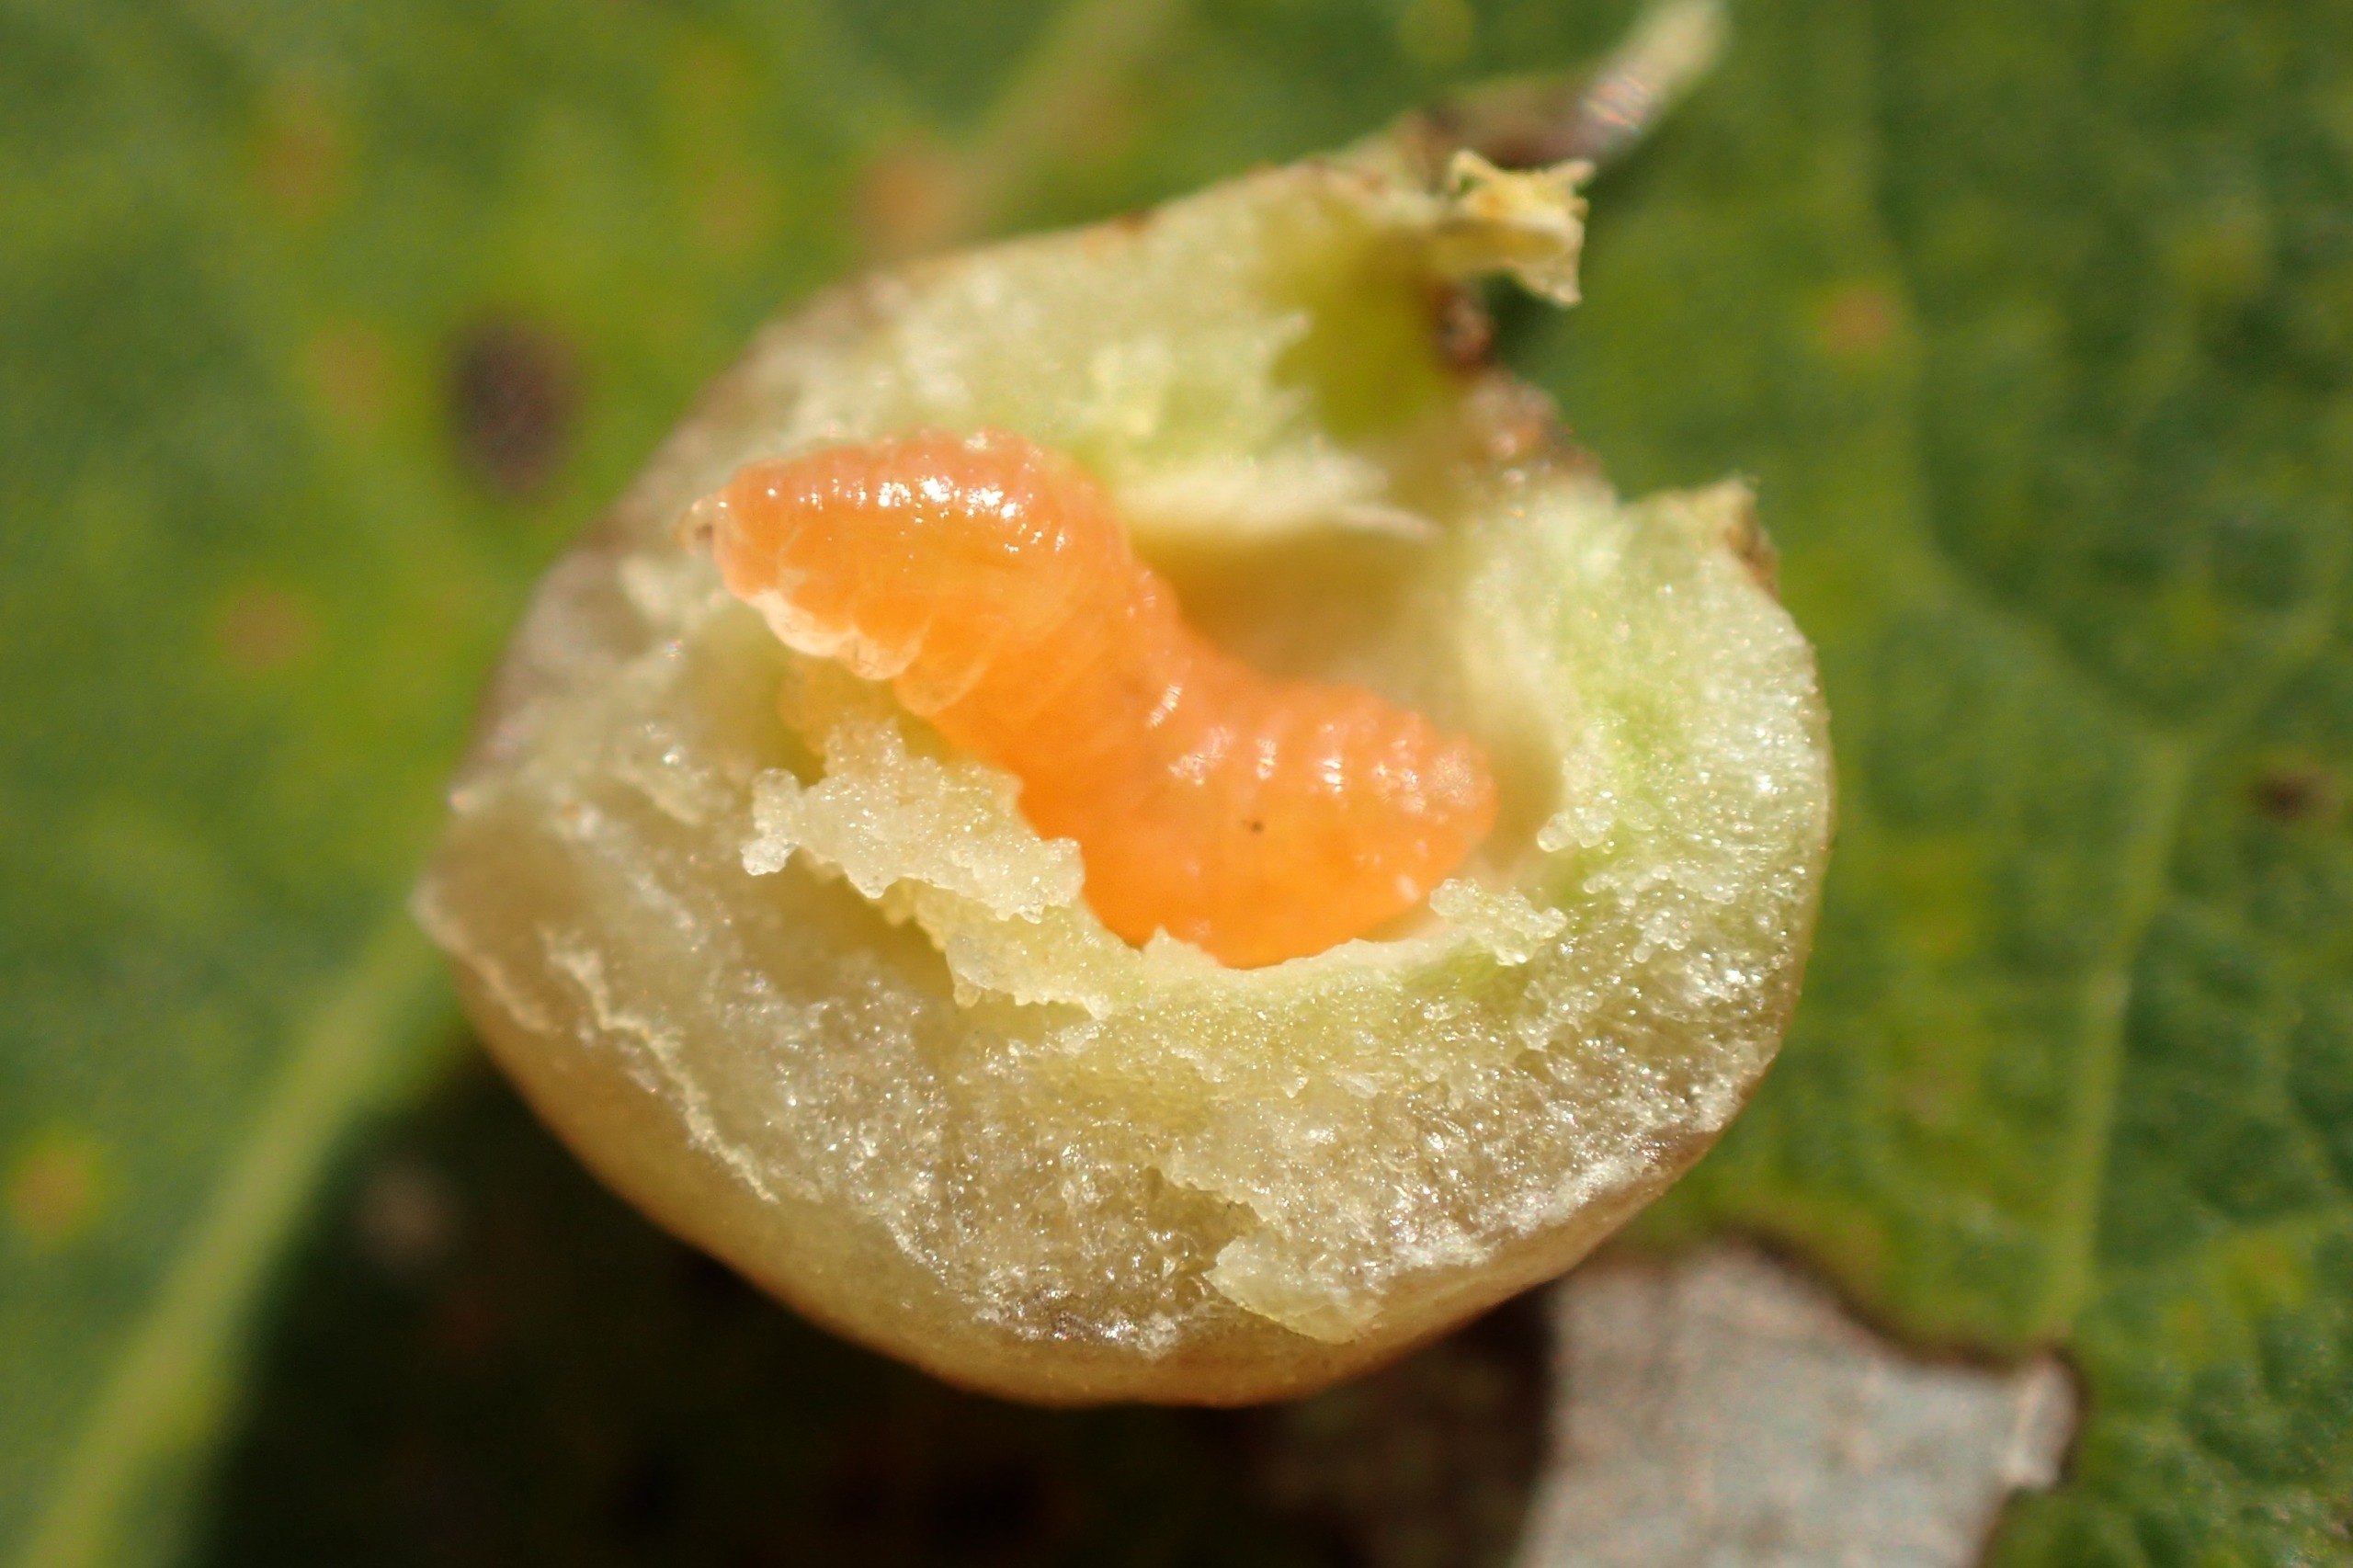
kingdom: Animalia
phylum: Arthropoda
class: Insecta
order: Diptera
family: Cecidomyiidae
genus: Harmandiola
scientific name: Harmandiola tremulae
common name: Aspekuglegalmyg
